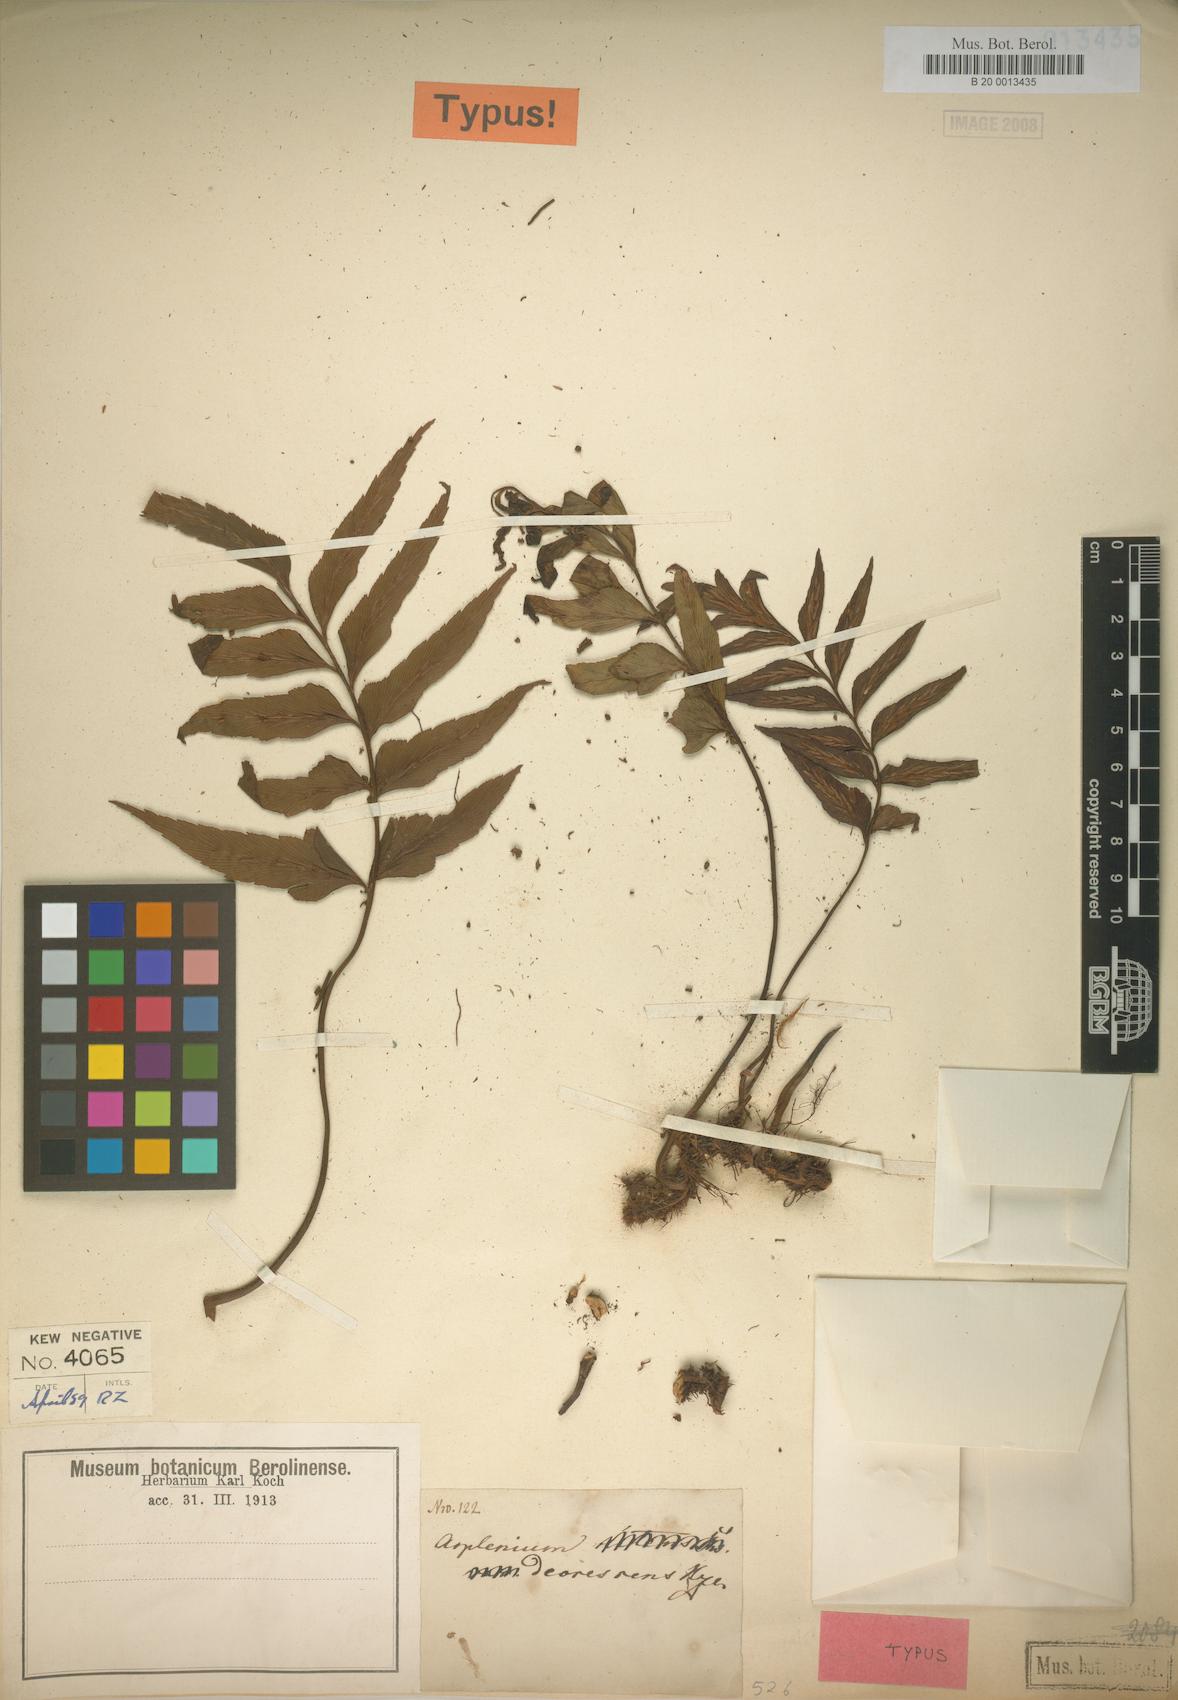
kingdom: Plantae
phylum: Tracheophyta
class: Polypodiopsida
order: Polypodiales
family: Aspleniaceae
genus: Asplenium
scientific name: Asplenium decrescens
